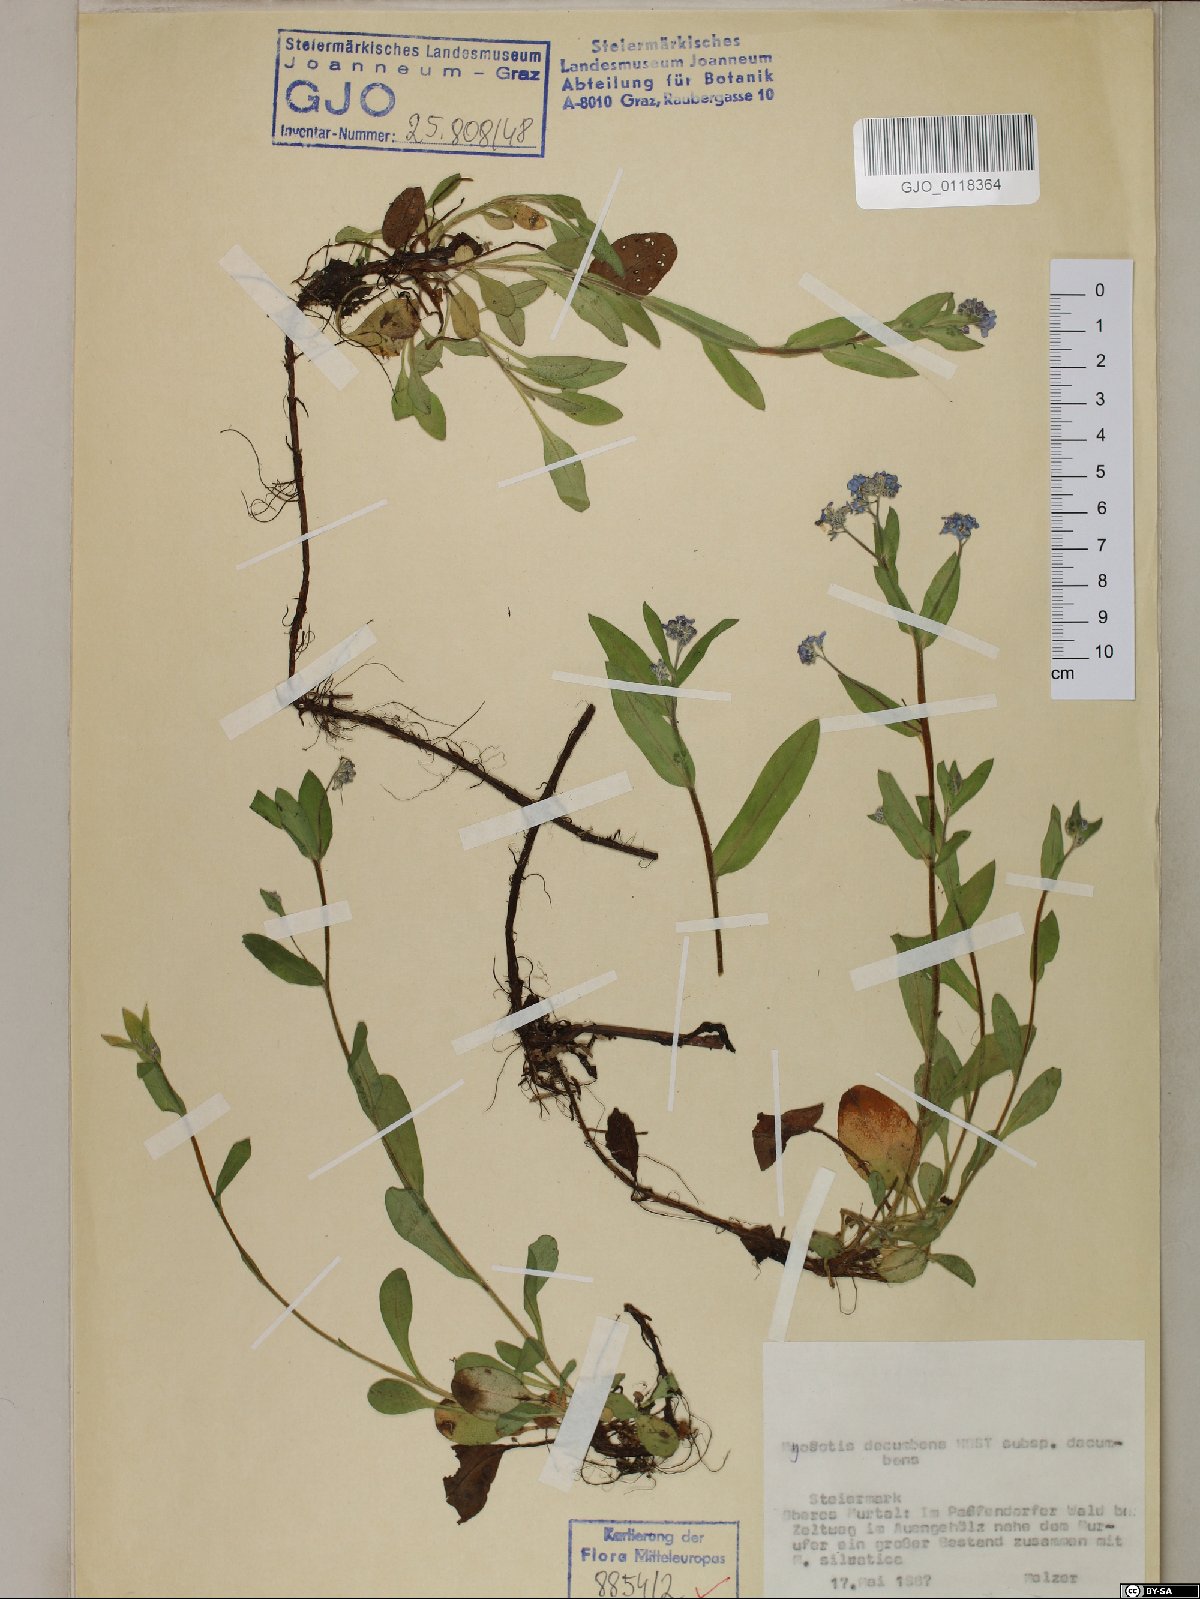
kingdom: Plantae
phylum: Tracheophyta
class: Magnoliopsida
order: Boraginales
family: Boraginaceae
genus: Myosotis
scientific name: Myosotis decumbens
